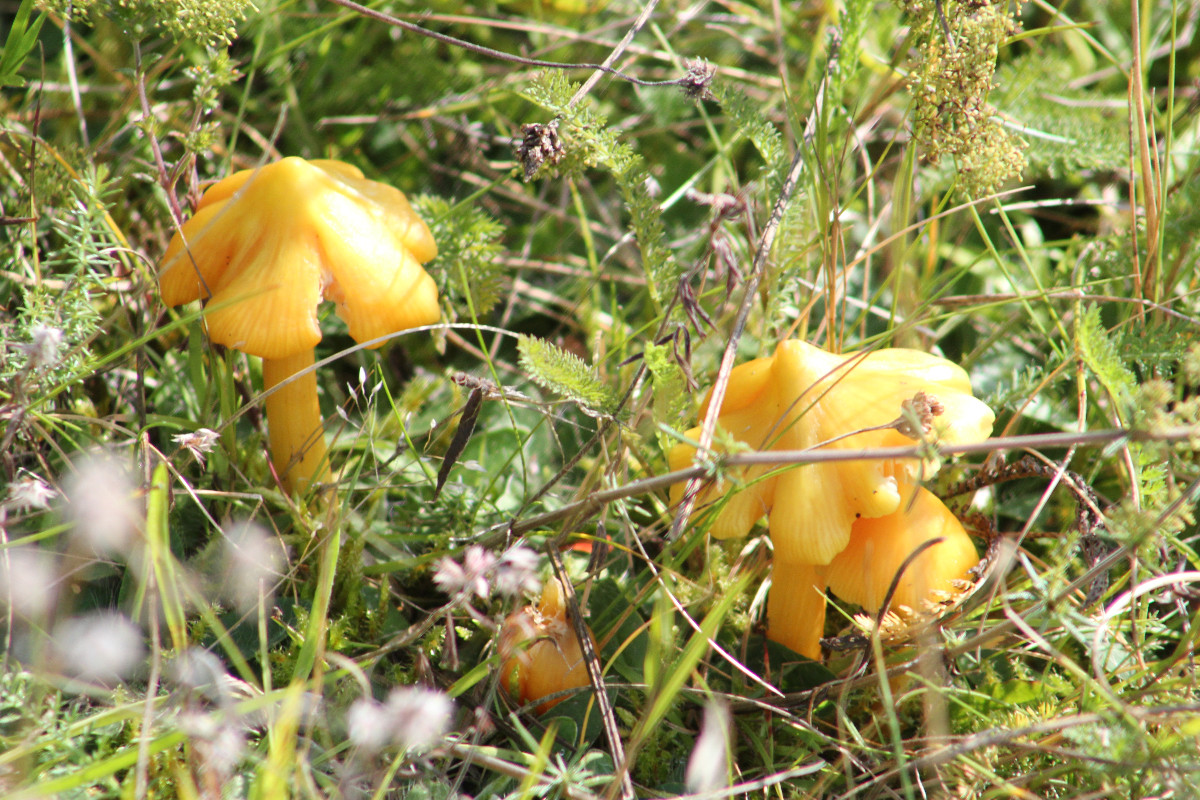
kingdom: Fungi
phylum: Basidiomycota
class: Agaricomycetes
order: Agaricales
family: Hygrophoraceae
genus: Hygrocybe
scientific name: Hygrocybe
